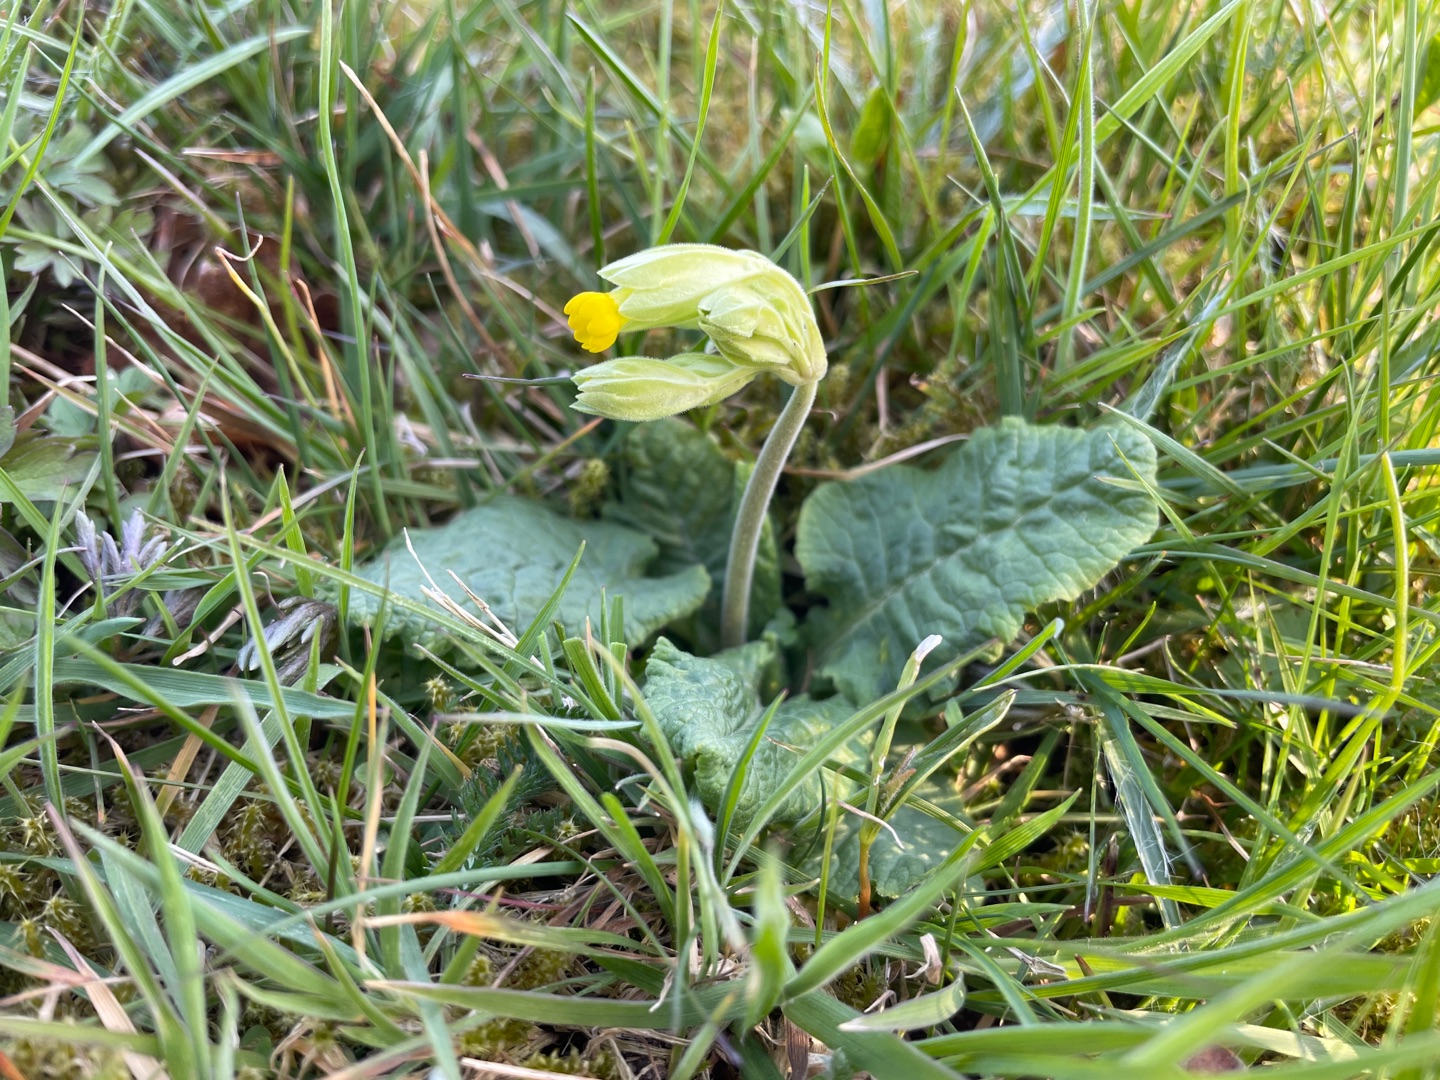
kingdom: Plantae
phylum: Tracheophyta
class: Magnoliopsida
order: Ericales
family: Primulaceae
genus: Primula
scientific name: Primula veris
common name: Hulkravet kodriver
